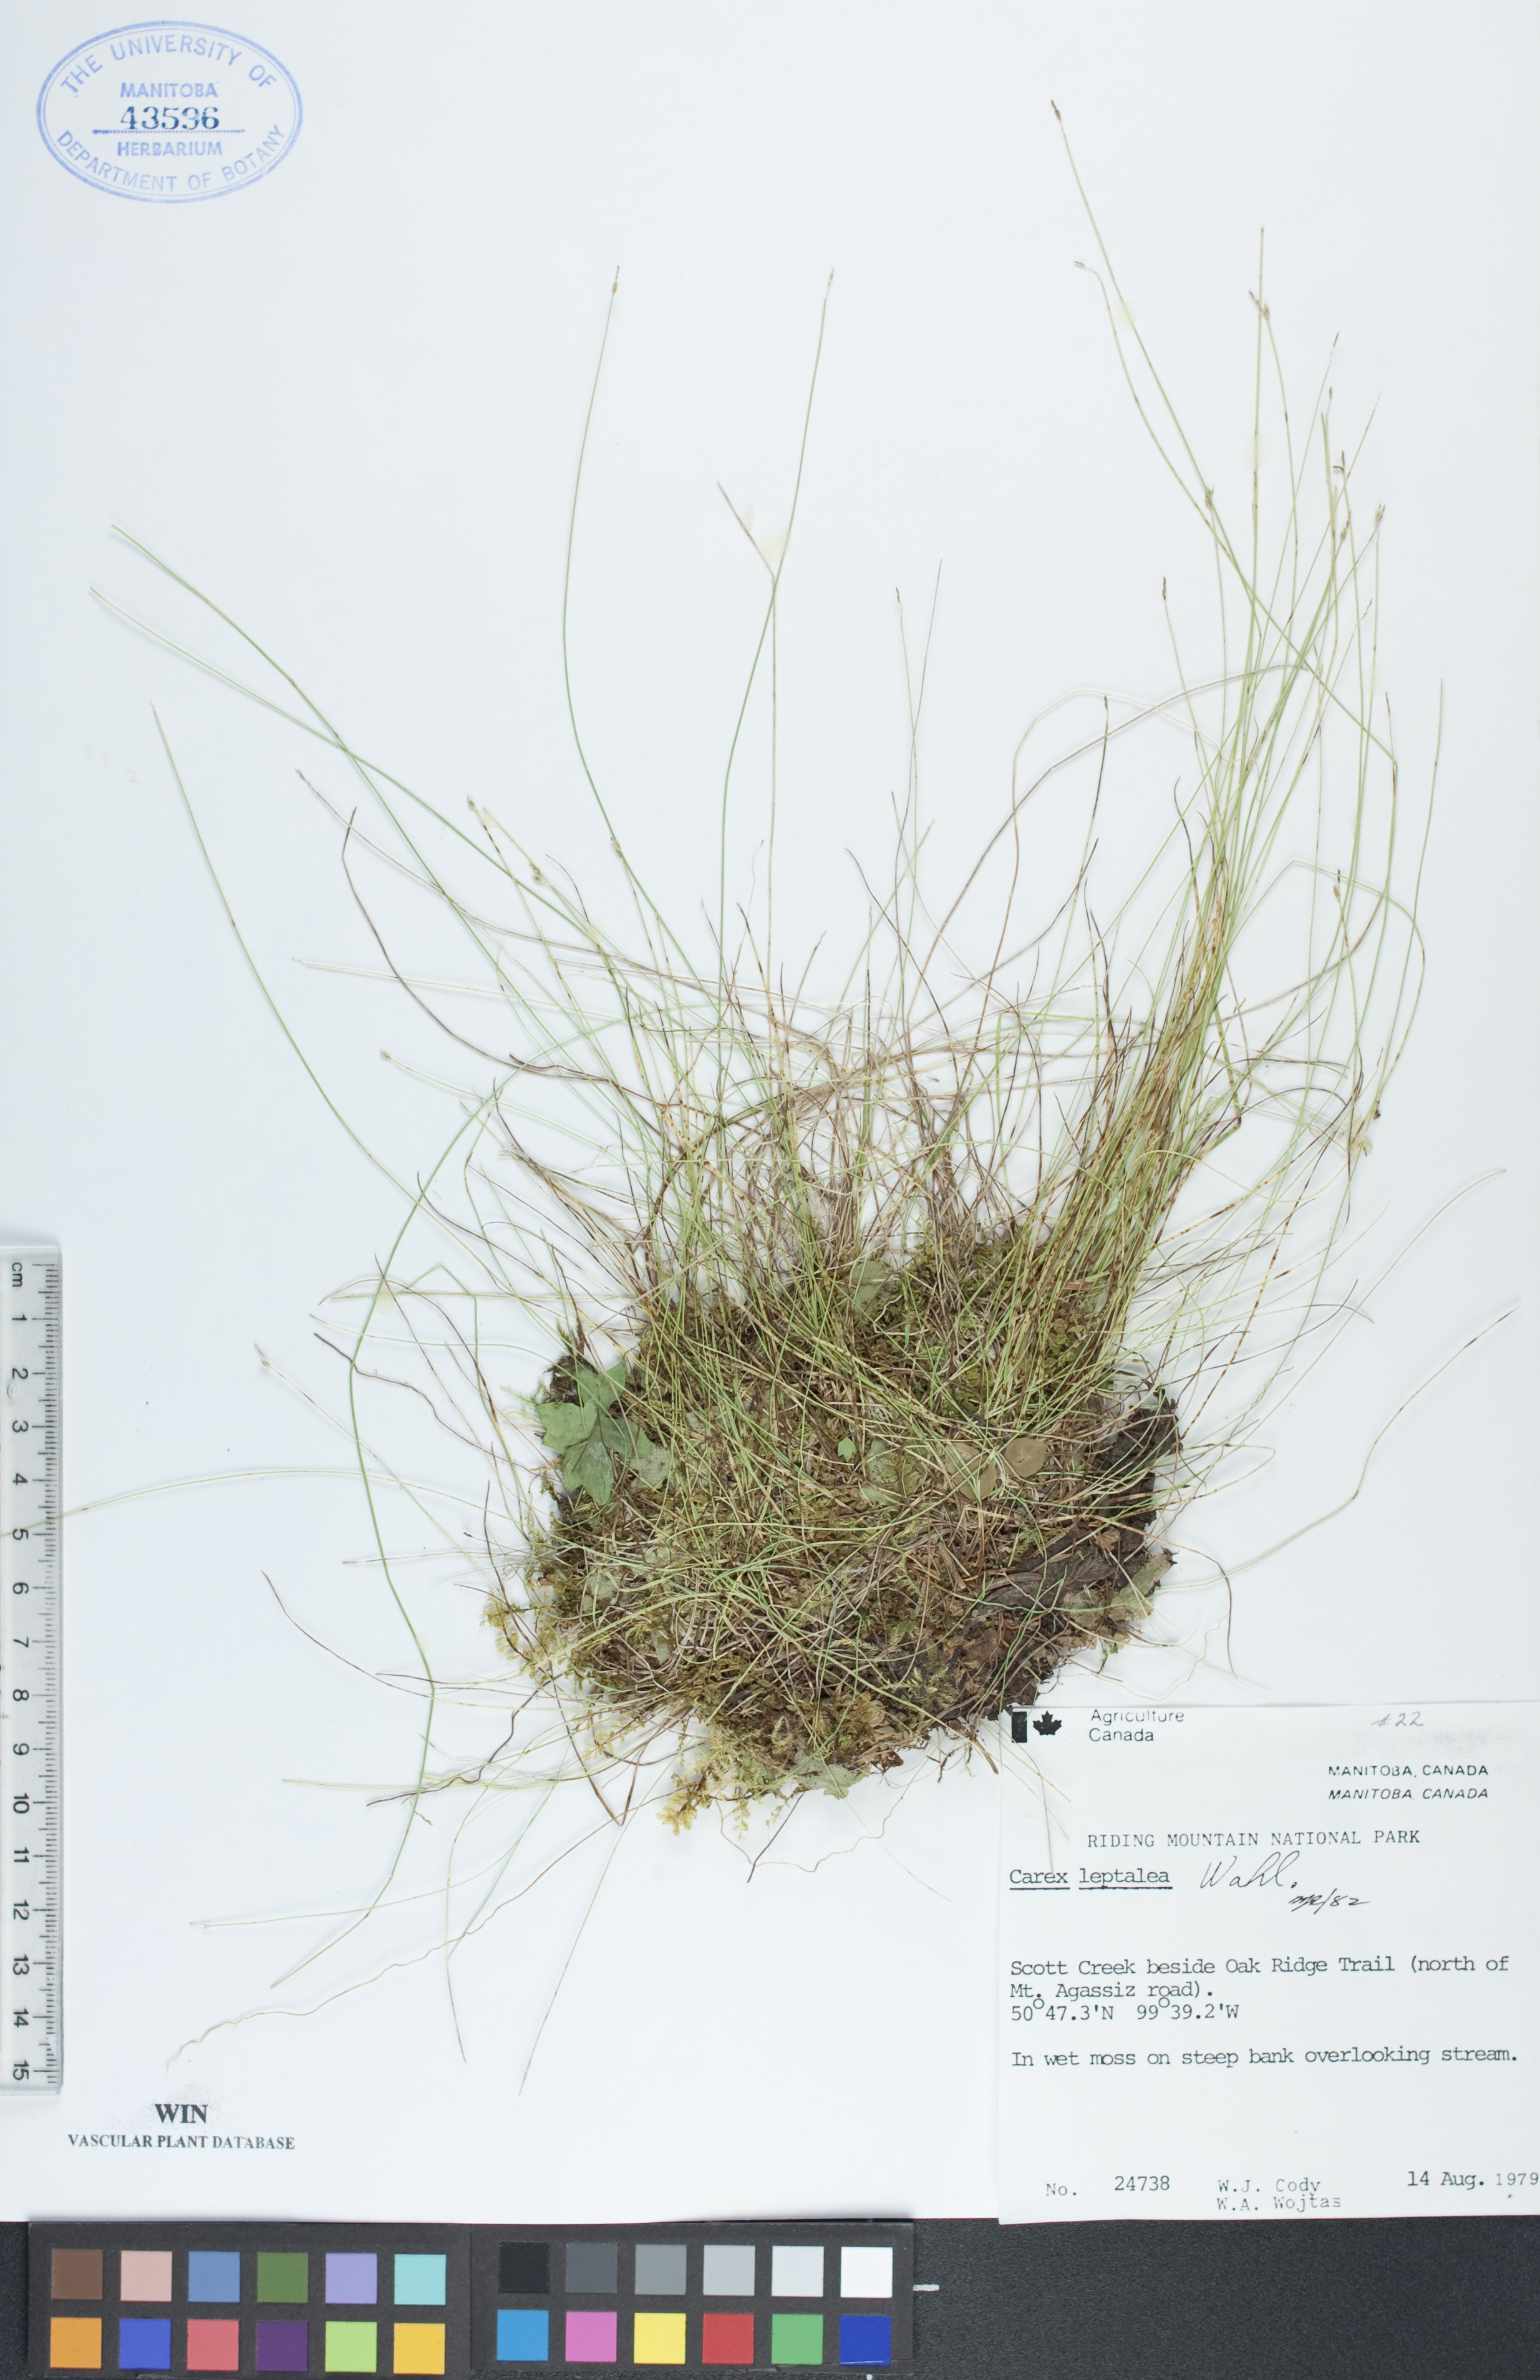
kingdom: Plantae
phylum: Tracheophyta
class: Liliopsida
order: Poales
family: Cyperaceae
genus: Carex
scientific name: Carex leptalea
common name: Bristly-stalked sedge
